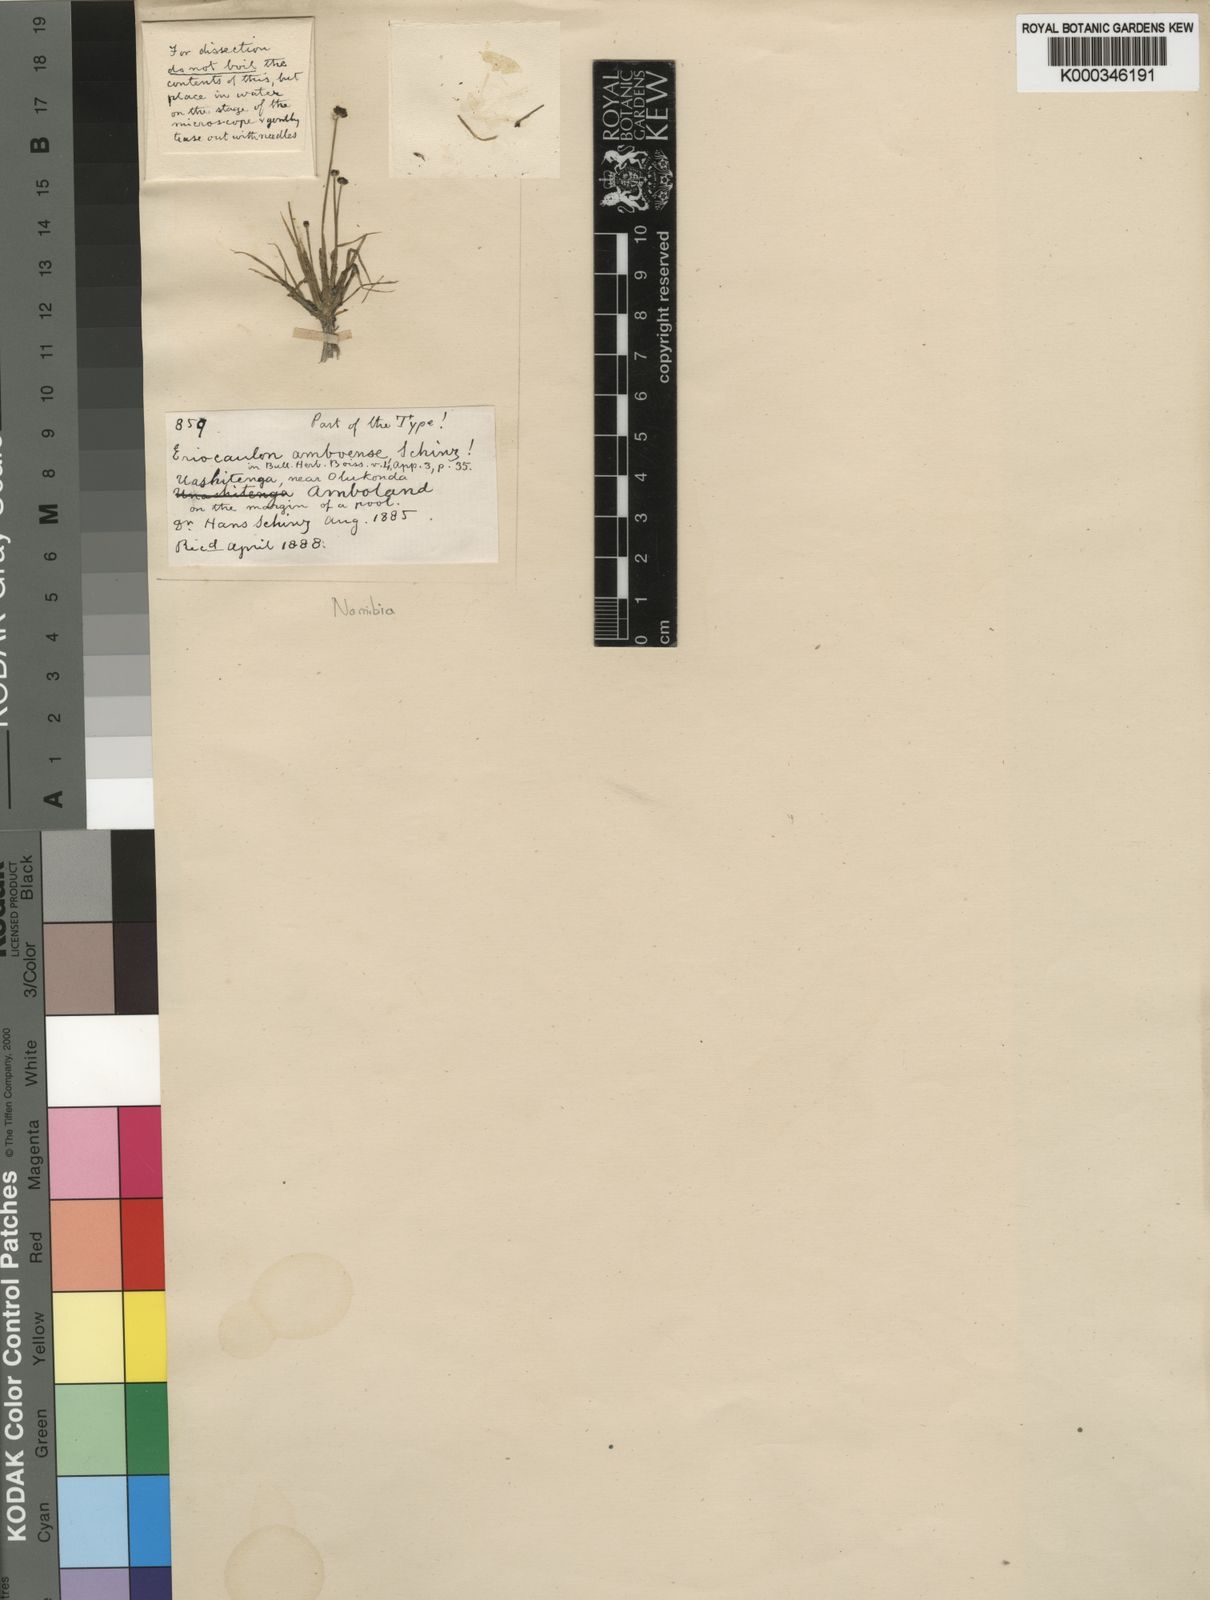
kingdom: Plantae
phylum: Tracheophyta
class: Liliopsida
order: Poales
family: Eriocaulaceae
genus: Eriocaulon
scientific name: Eriocaulon cinereum
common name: Ashy pipewort
